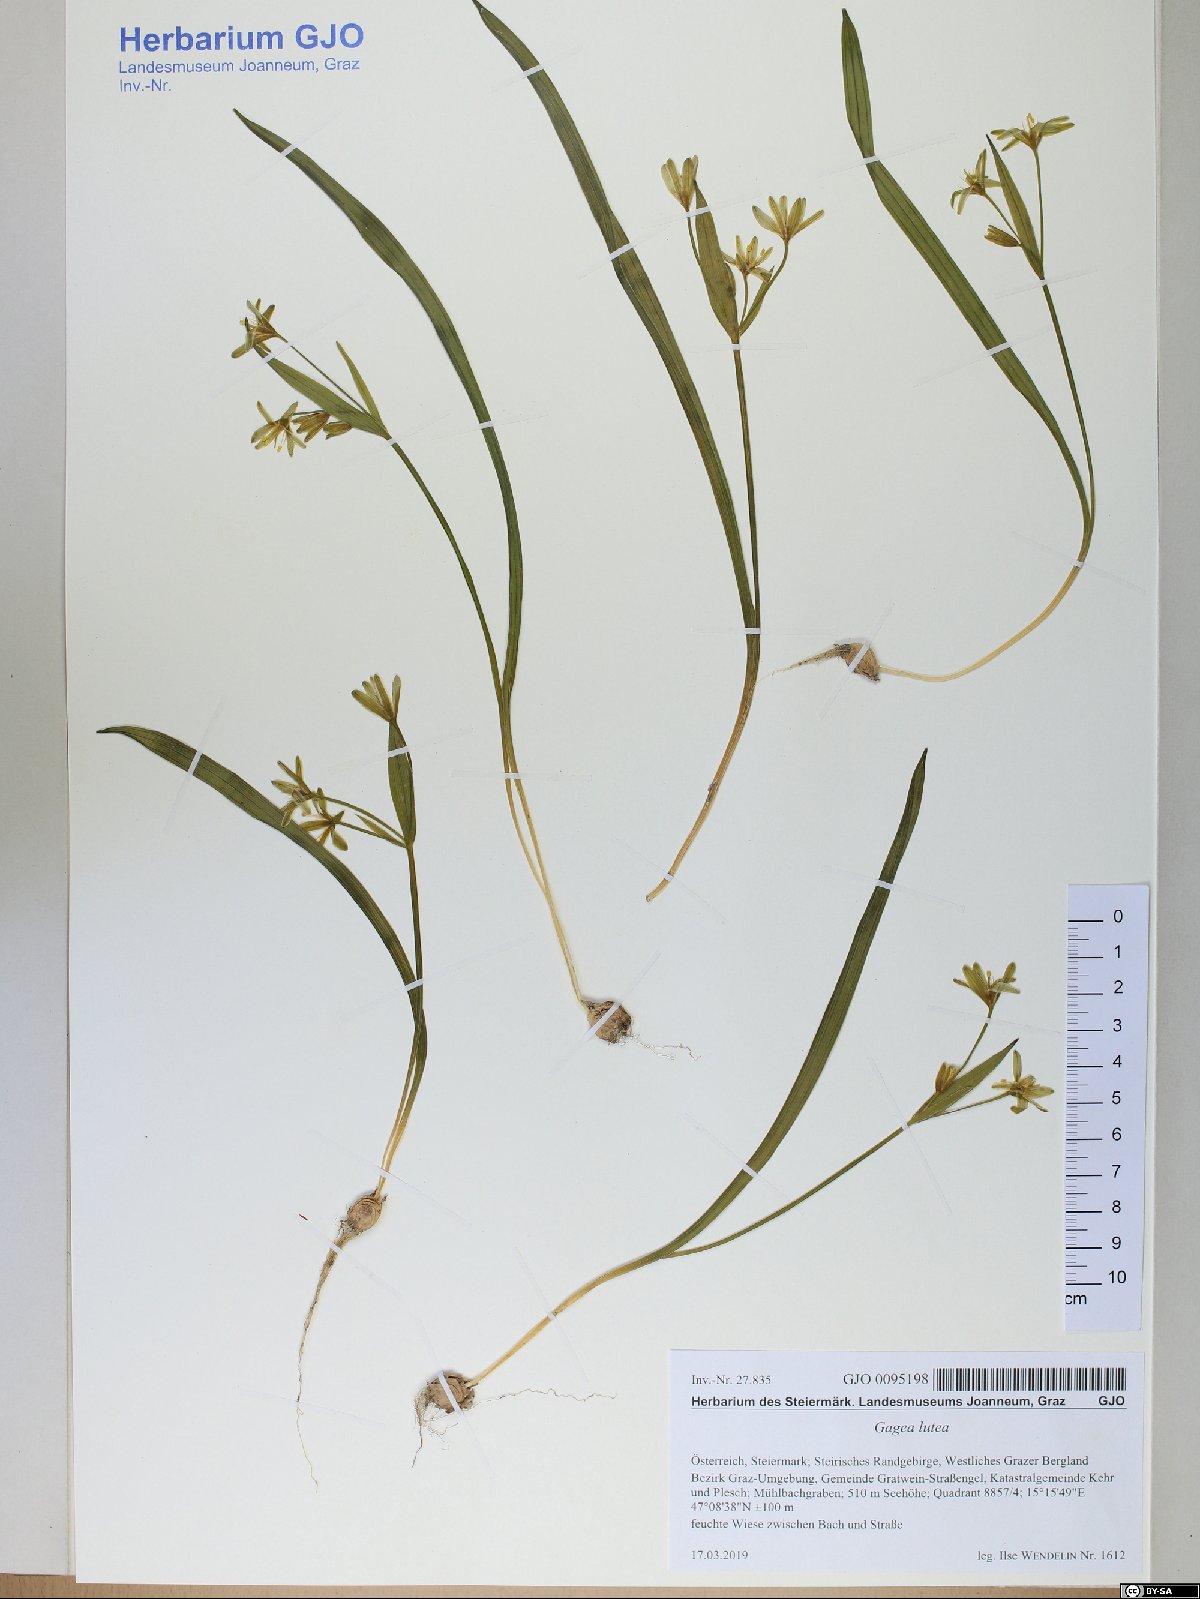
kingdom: Plantae
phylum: Tracheophyta
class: Liliopsida
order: Liliales
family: Liliaceae
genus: Gagea
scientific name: Gagea lutea
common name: Yellow star-of-bethlehem
